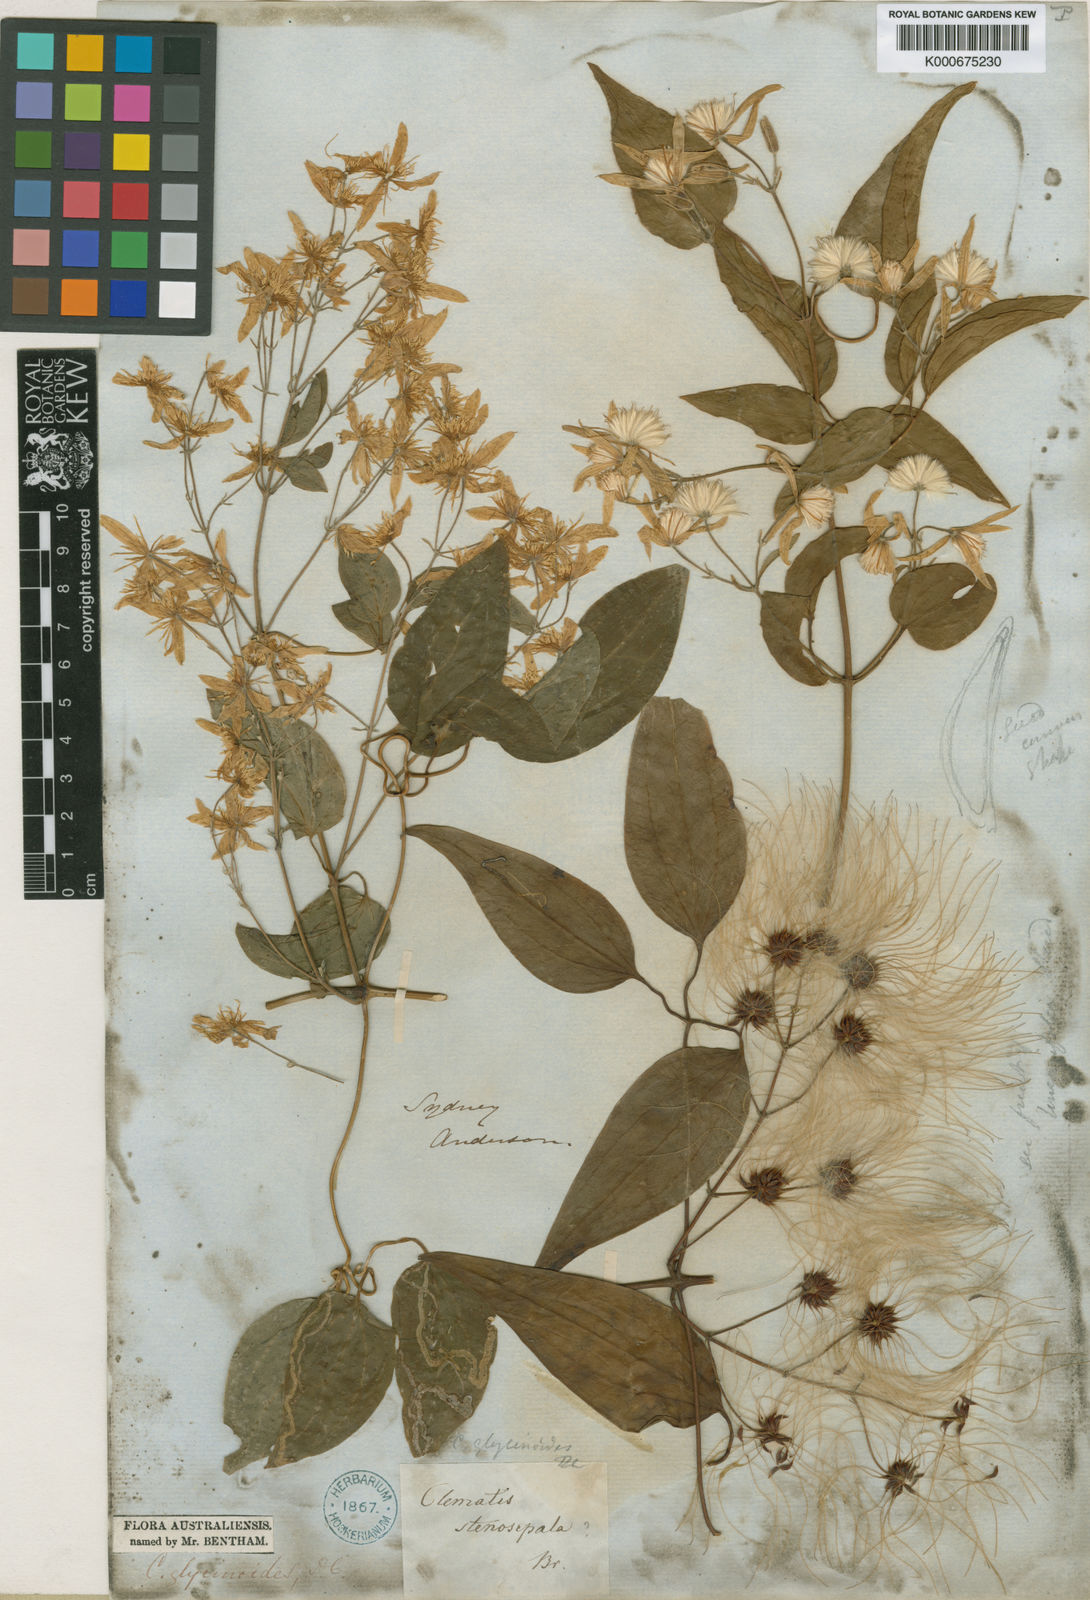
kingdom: Plantae
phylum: Tracheophyta
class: Magnoliopsida
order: Ranunculales
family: Ranunculaceae
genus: Clematis
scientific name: Clematis glycinoides
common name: Forest clematis
